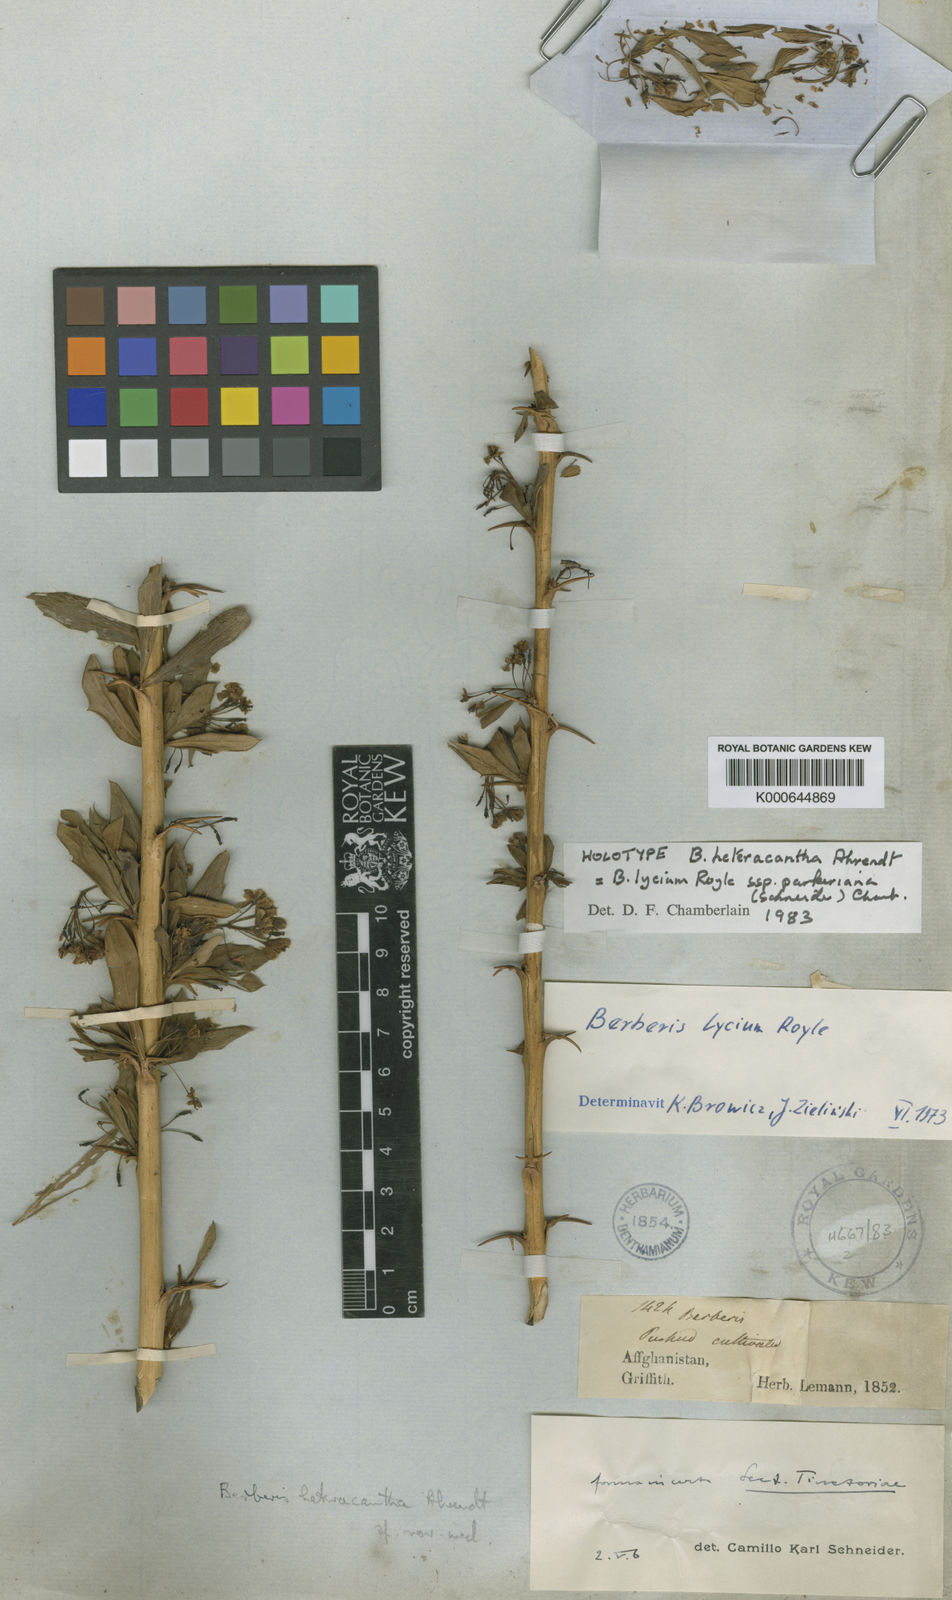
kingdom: Plantae
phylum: Tracheophyta
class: Magnoliopsida
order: Ranunculales
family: Berberidaceae
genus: Berberis
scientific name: Berberis lycium
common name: Boxthorn barberry
